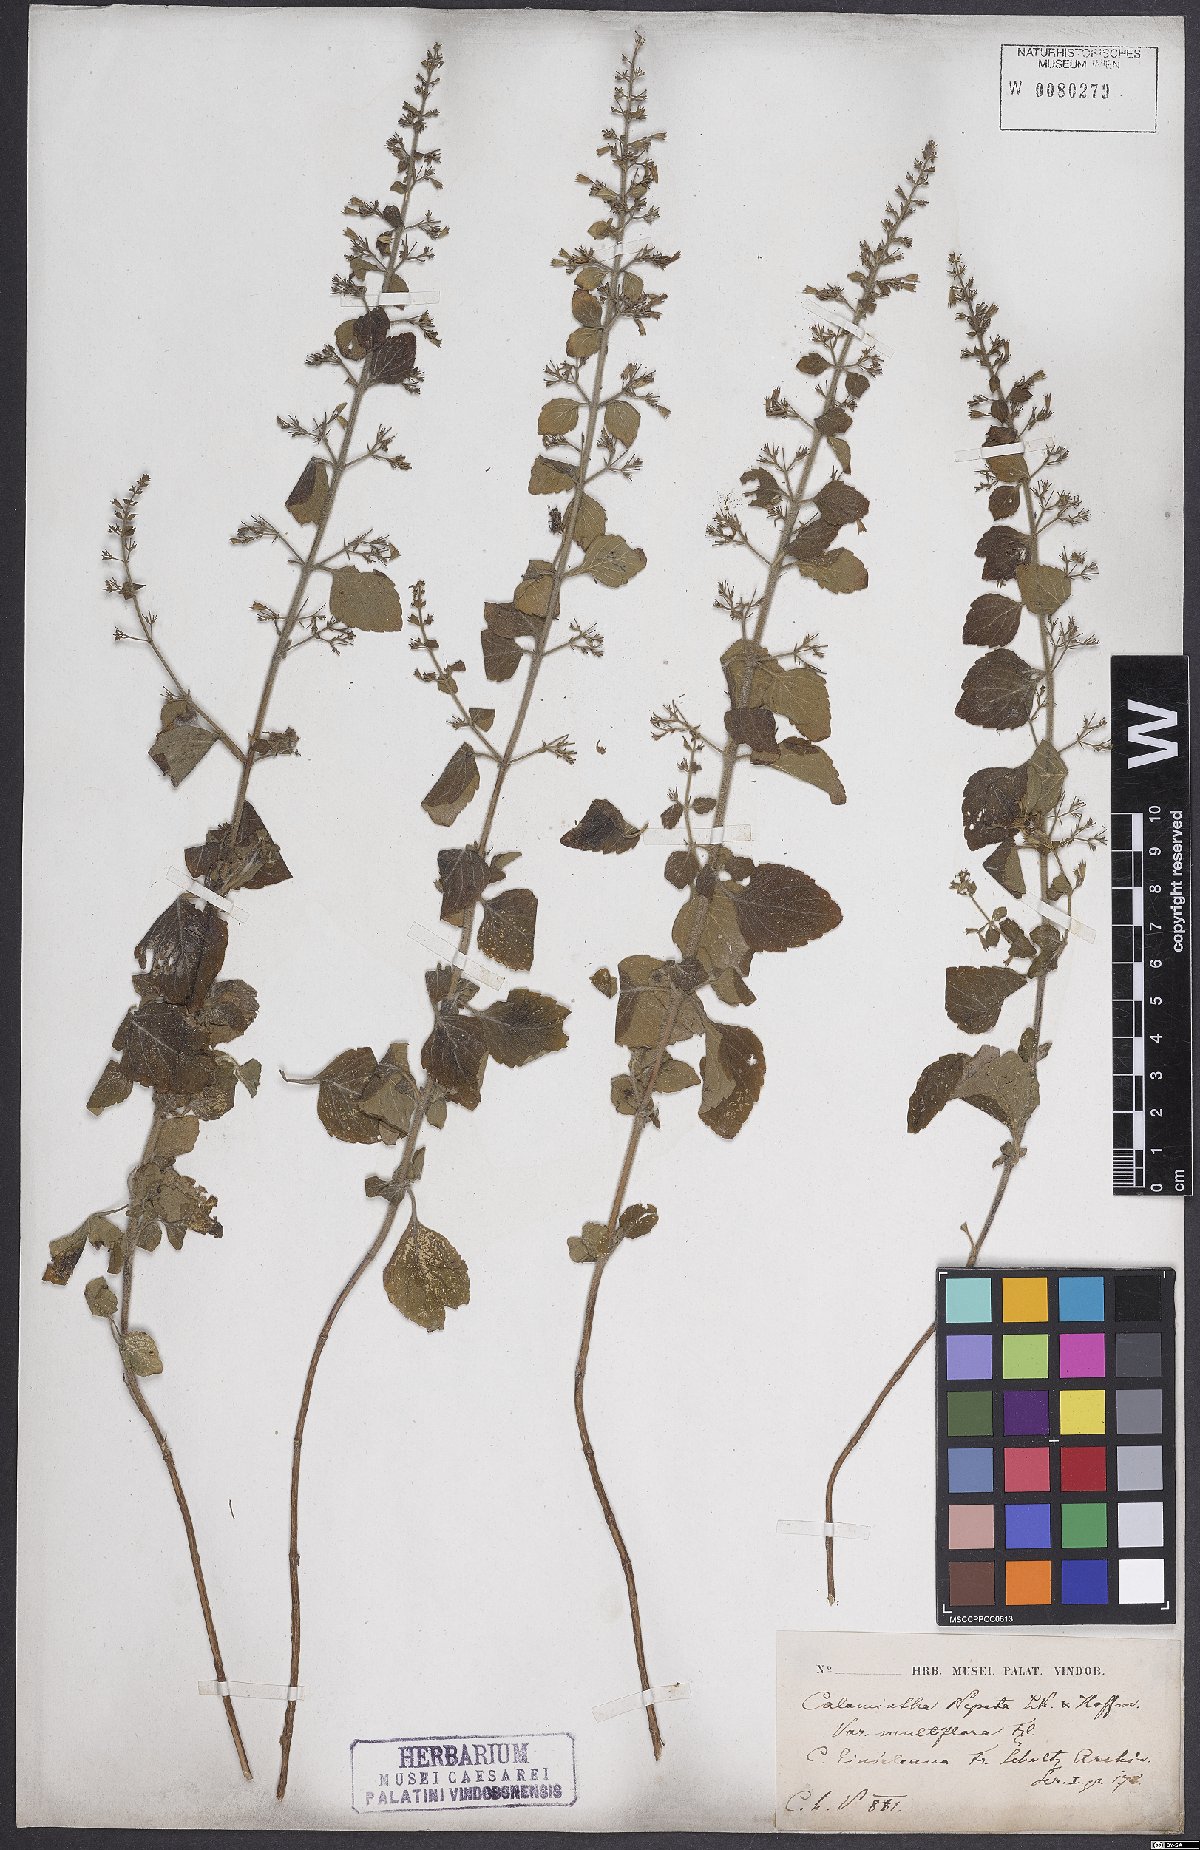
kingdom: Plantae
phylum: Tracheophyta
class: Magnoliopsida
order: Lamiales
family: Lamiaceae
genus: Clinopodium
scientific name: Clinopodium nepeta
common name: Lesser calamint
